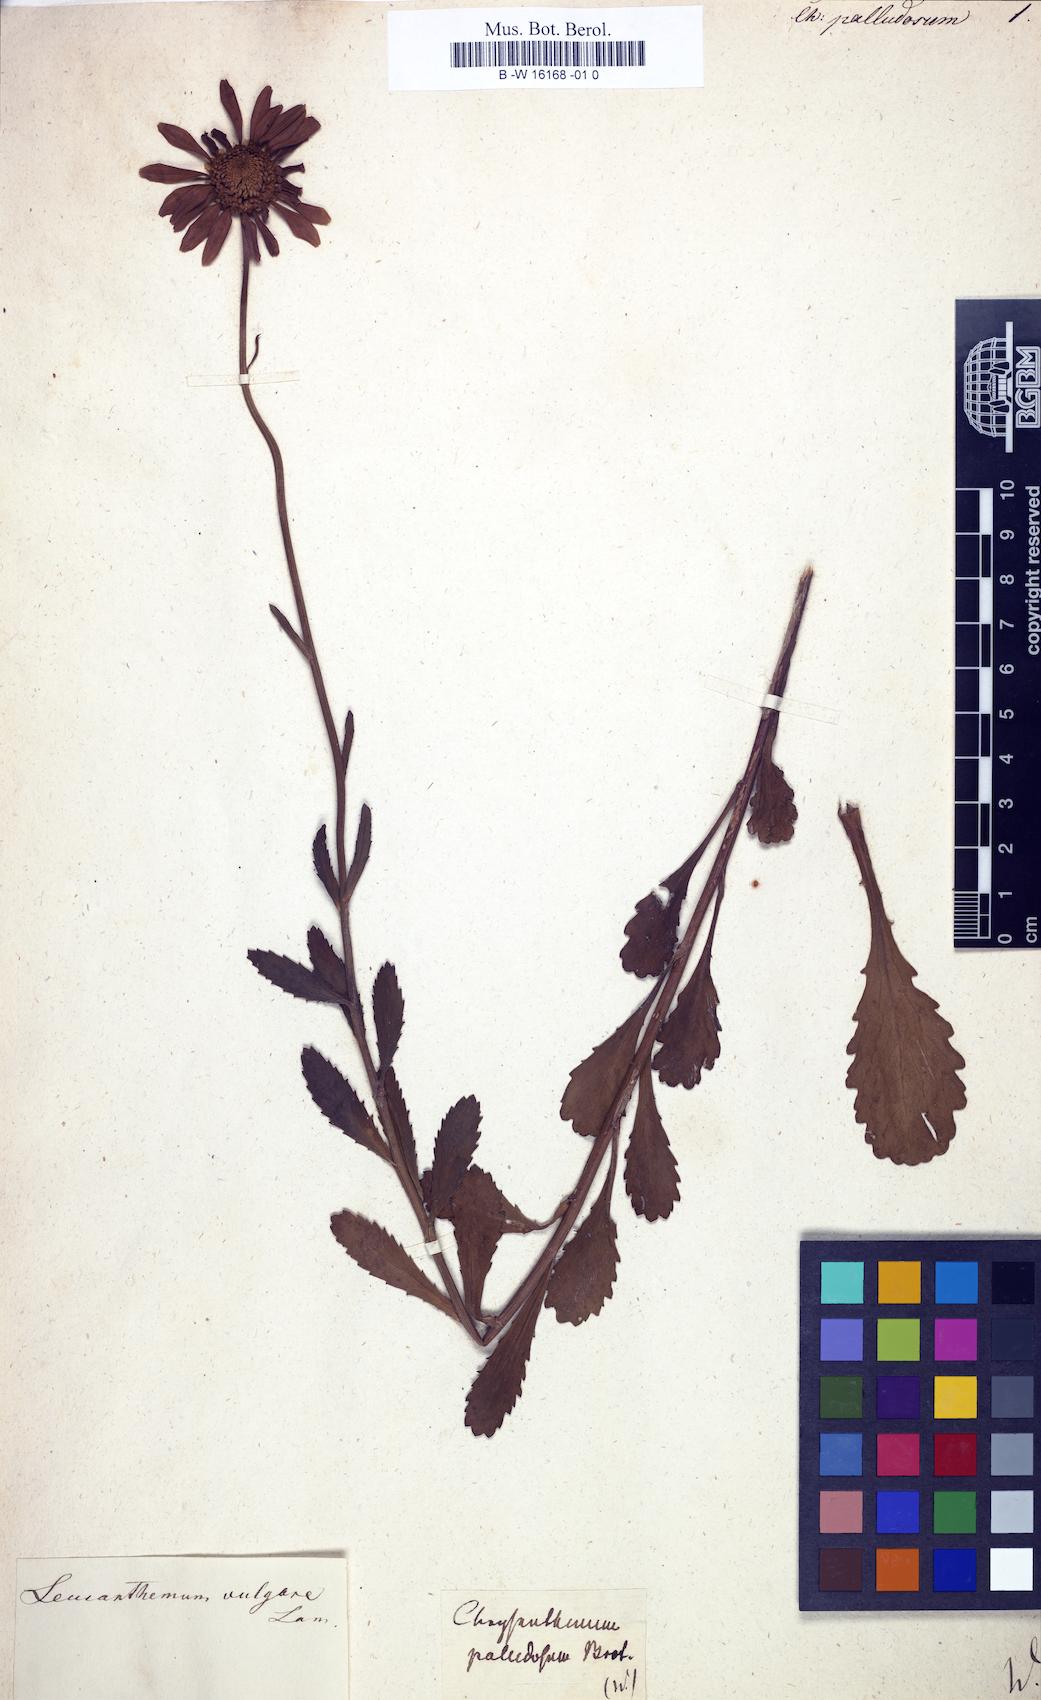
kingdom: Plantae
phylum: Tracheophyta
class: Magnoliopsida
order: Asterales
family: Asteraceae
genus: Mauranthemum
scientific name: Mauranthemum paludosum
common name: Sunflower
